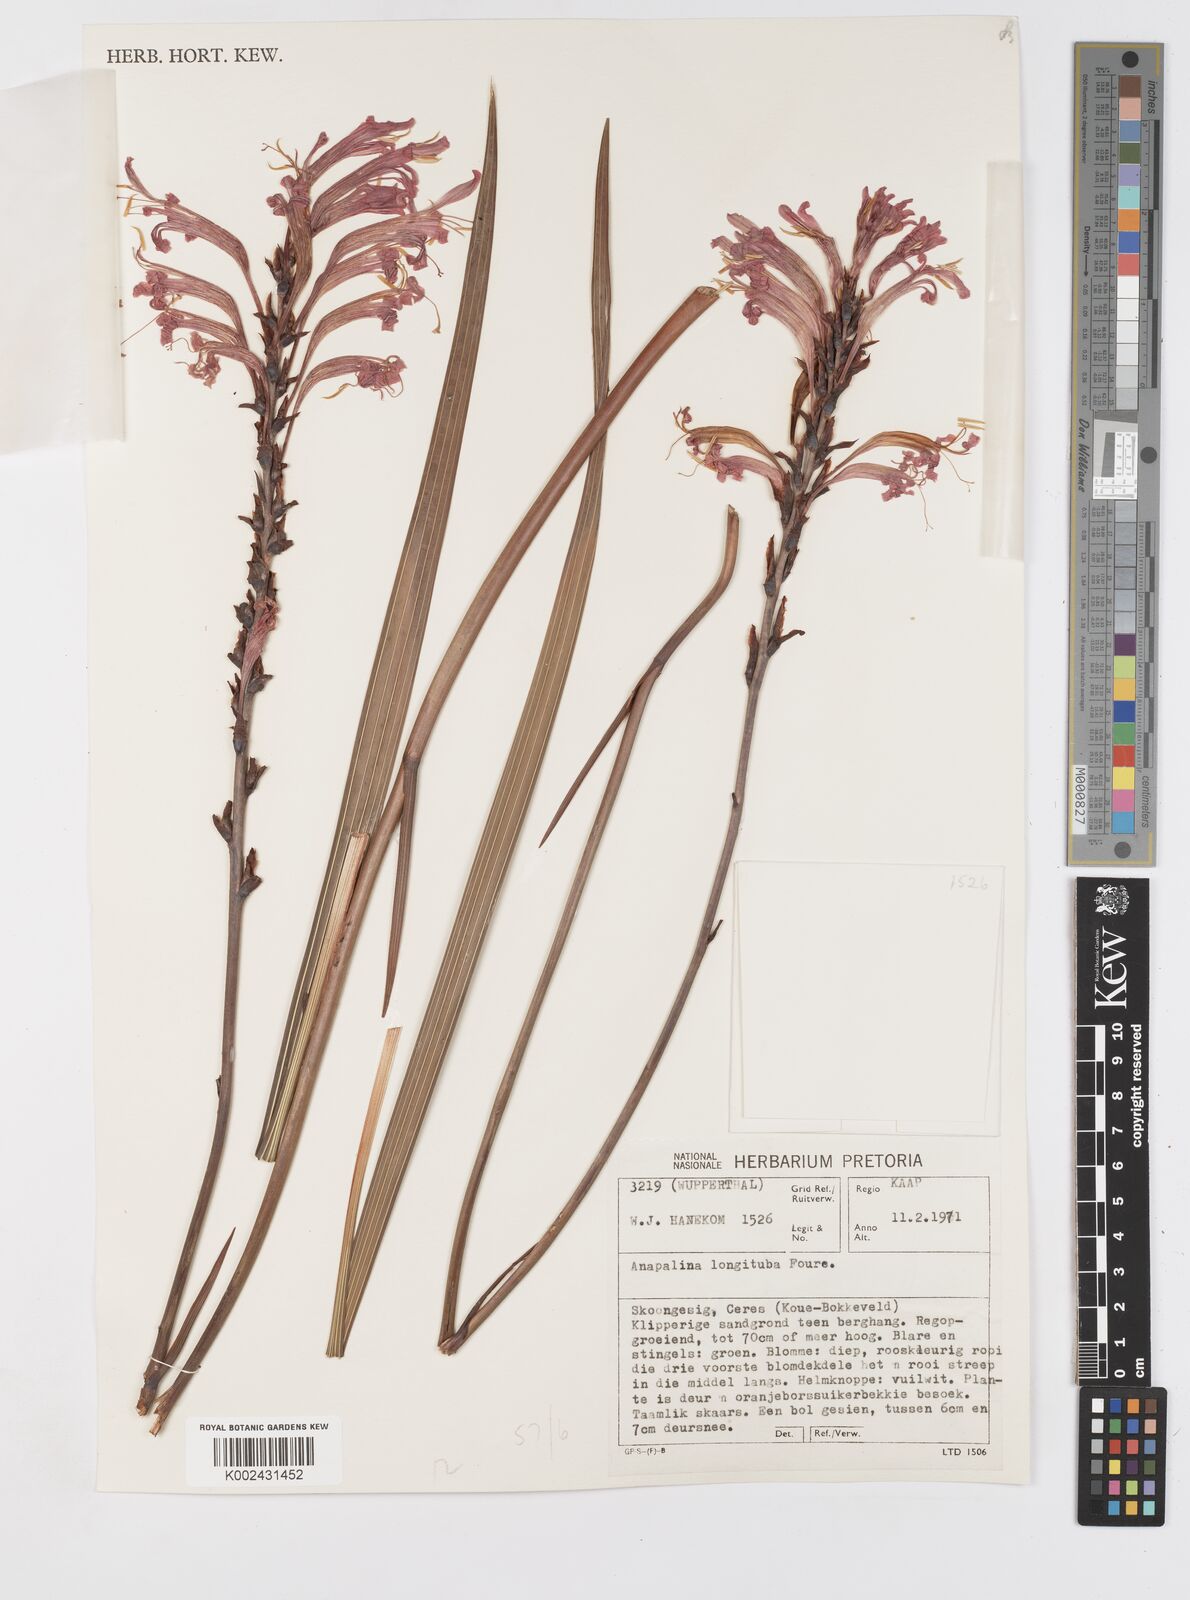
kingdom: Plantae
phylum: Tracheophyta
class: Liliopsida
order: Asparagales
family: Iridaceae
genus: Tritoniopsis
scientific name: Tritoniopsis antholyza
